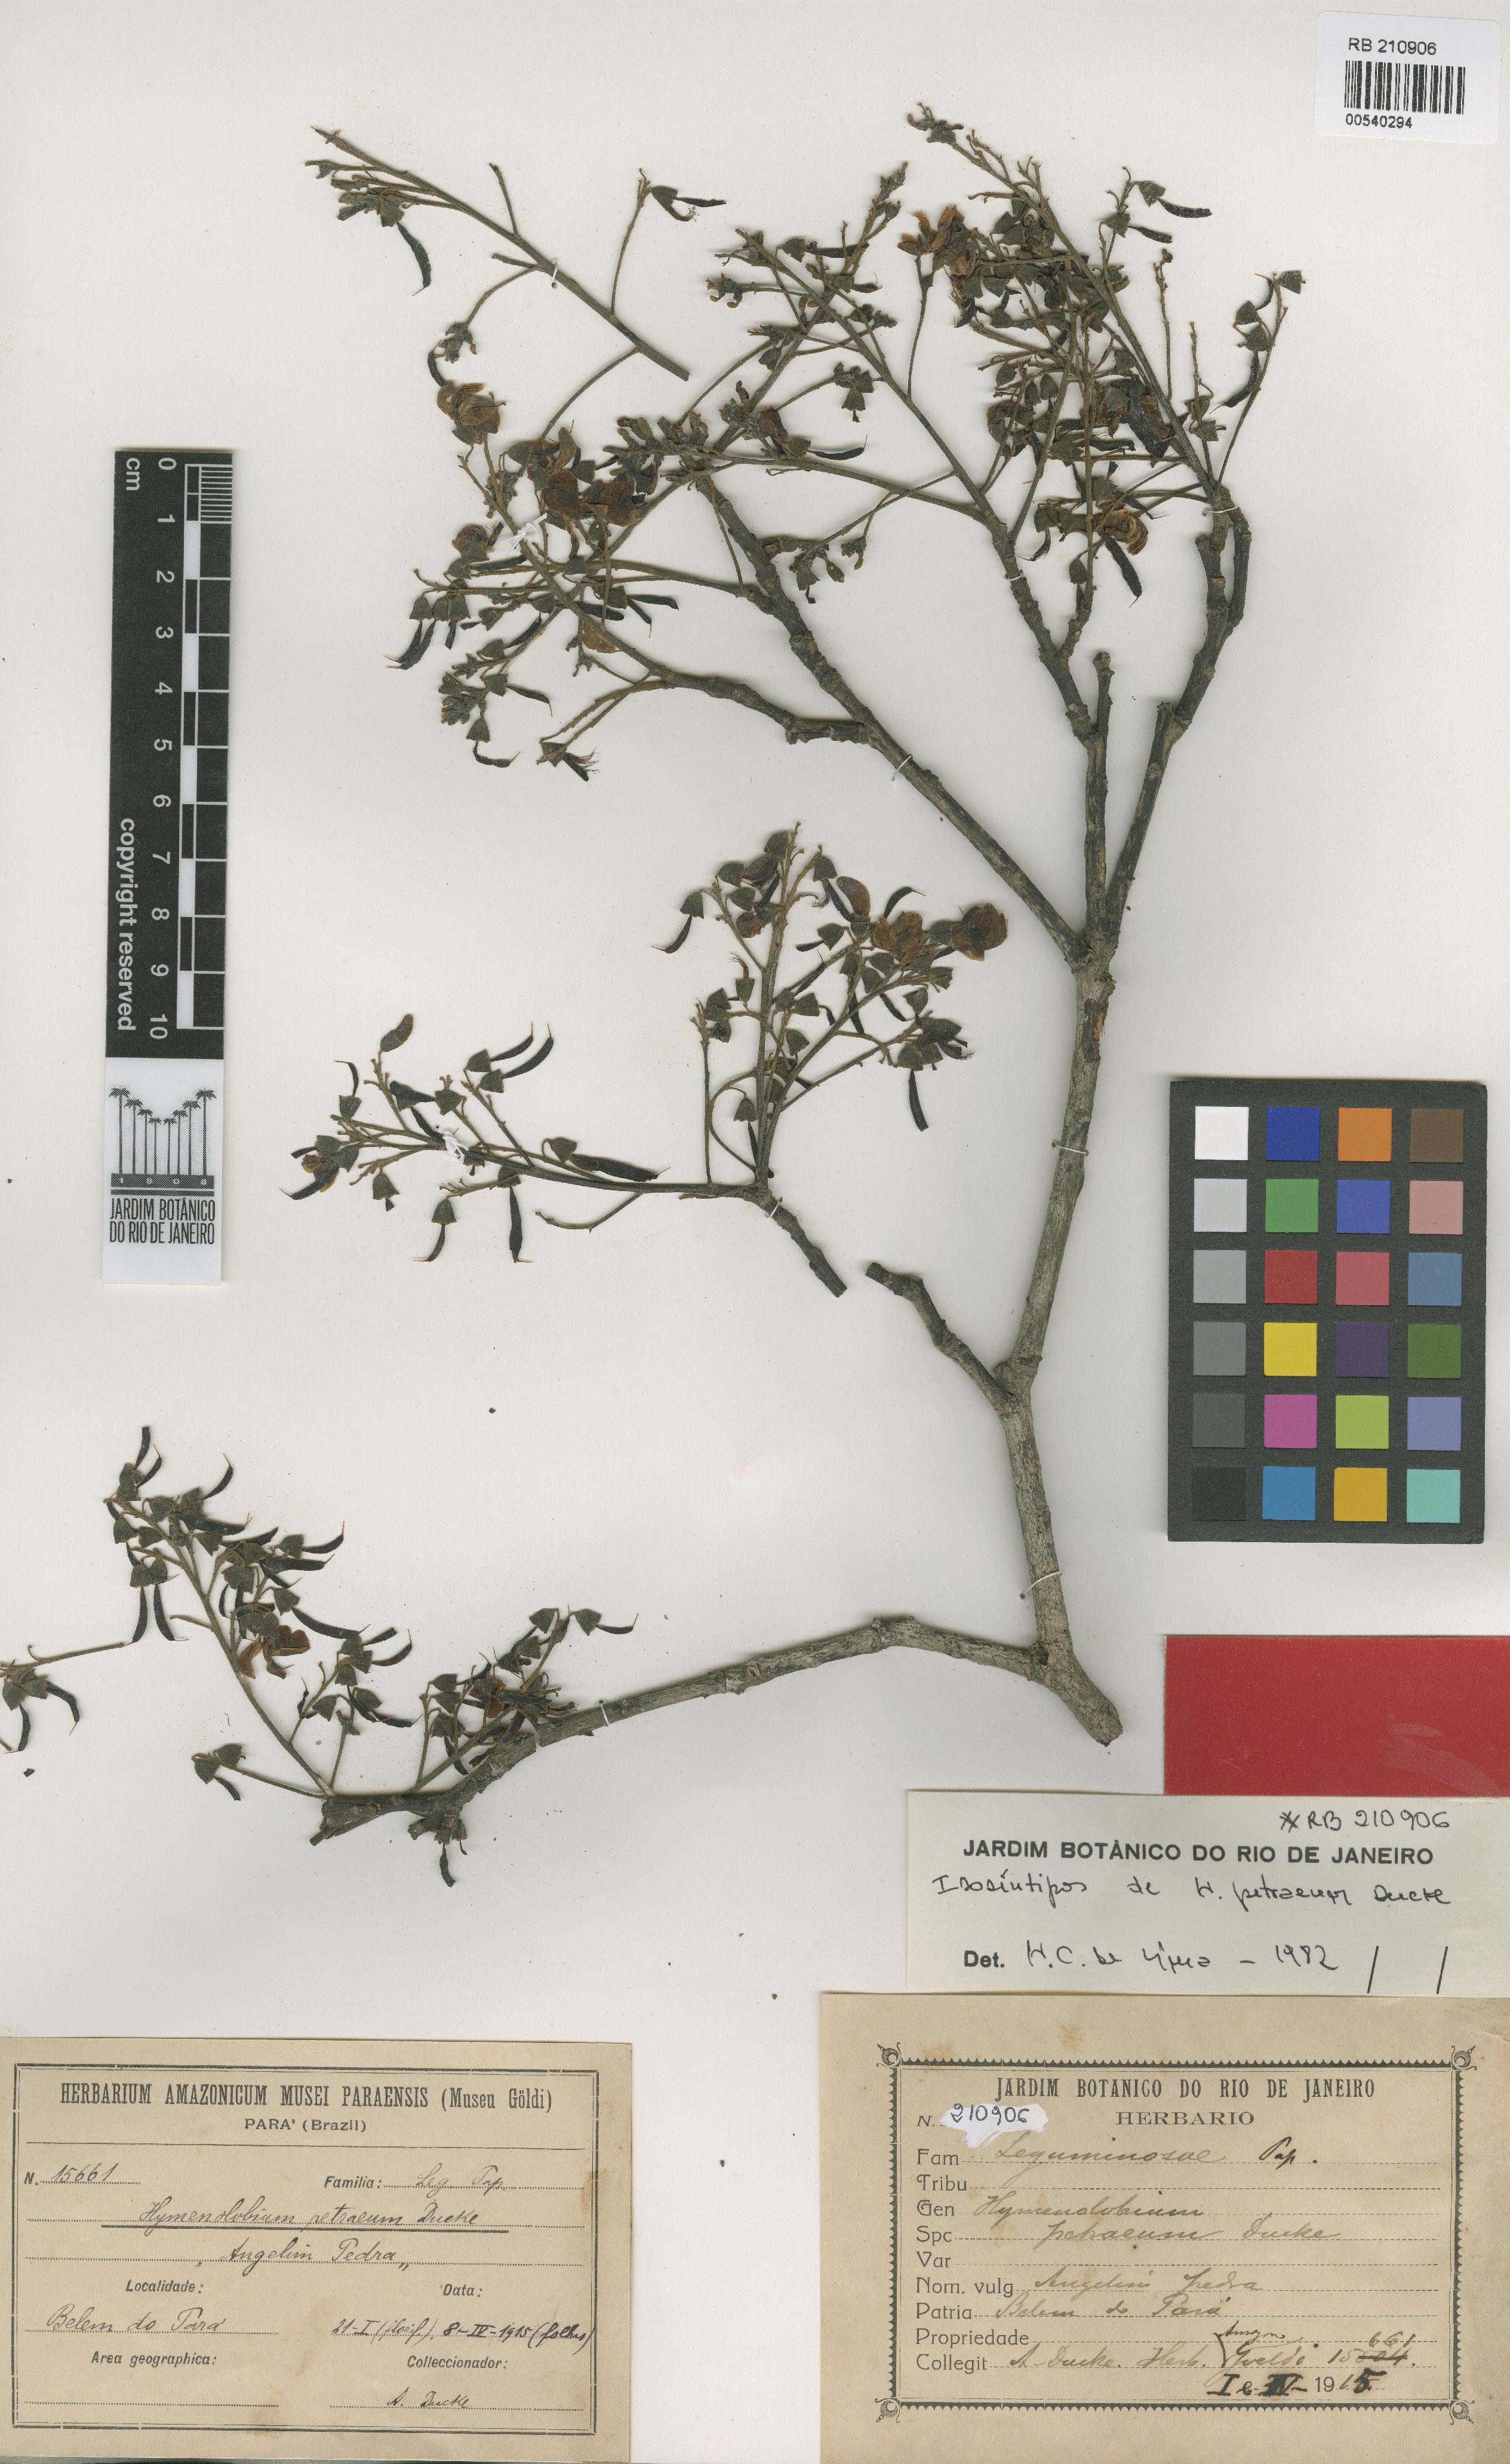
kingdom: Plantae
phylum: Tracheophyta
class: Magnoliopsida
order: Fabales
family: Fabaceae
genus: Hymenolobium
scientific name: Hymenolobium petraeum
